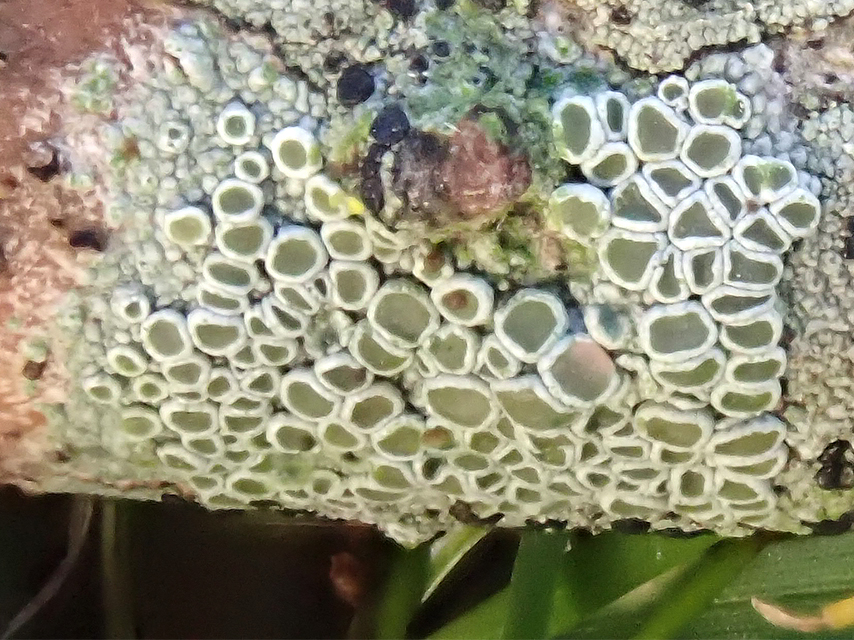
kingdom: Fungi
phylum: Ascomycota
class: Lecanoromycetes
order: Lecanorales
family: Lecanoraceae
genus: Lecanora
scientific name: Lecanora chlarotera
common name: brun kantskivelav
